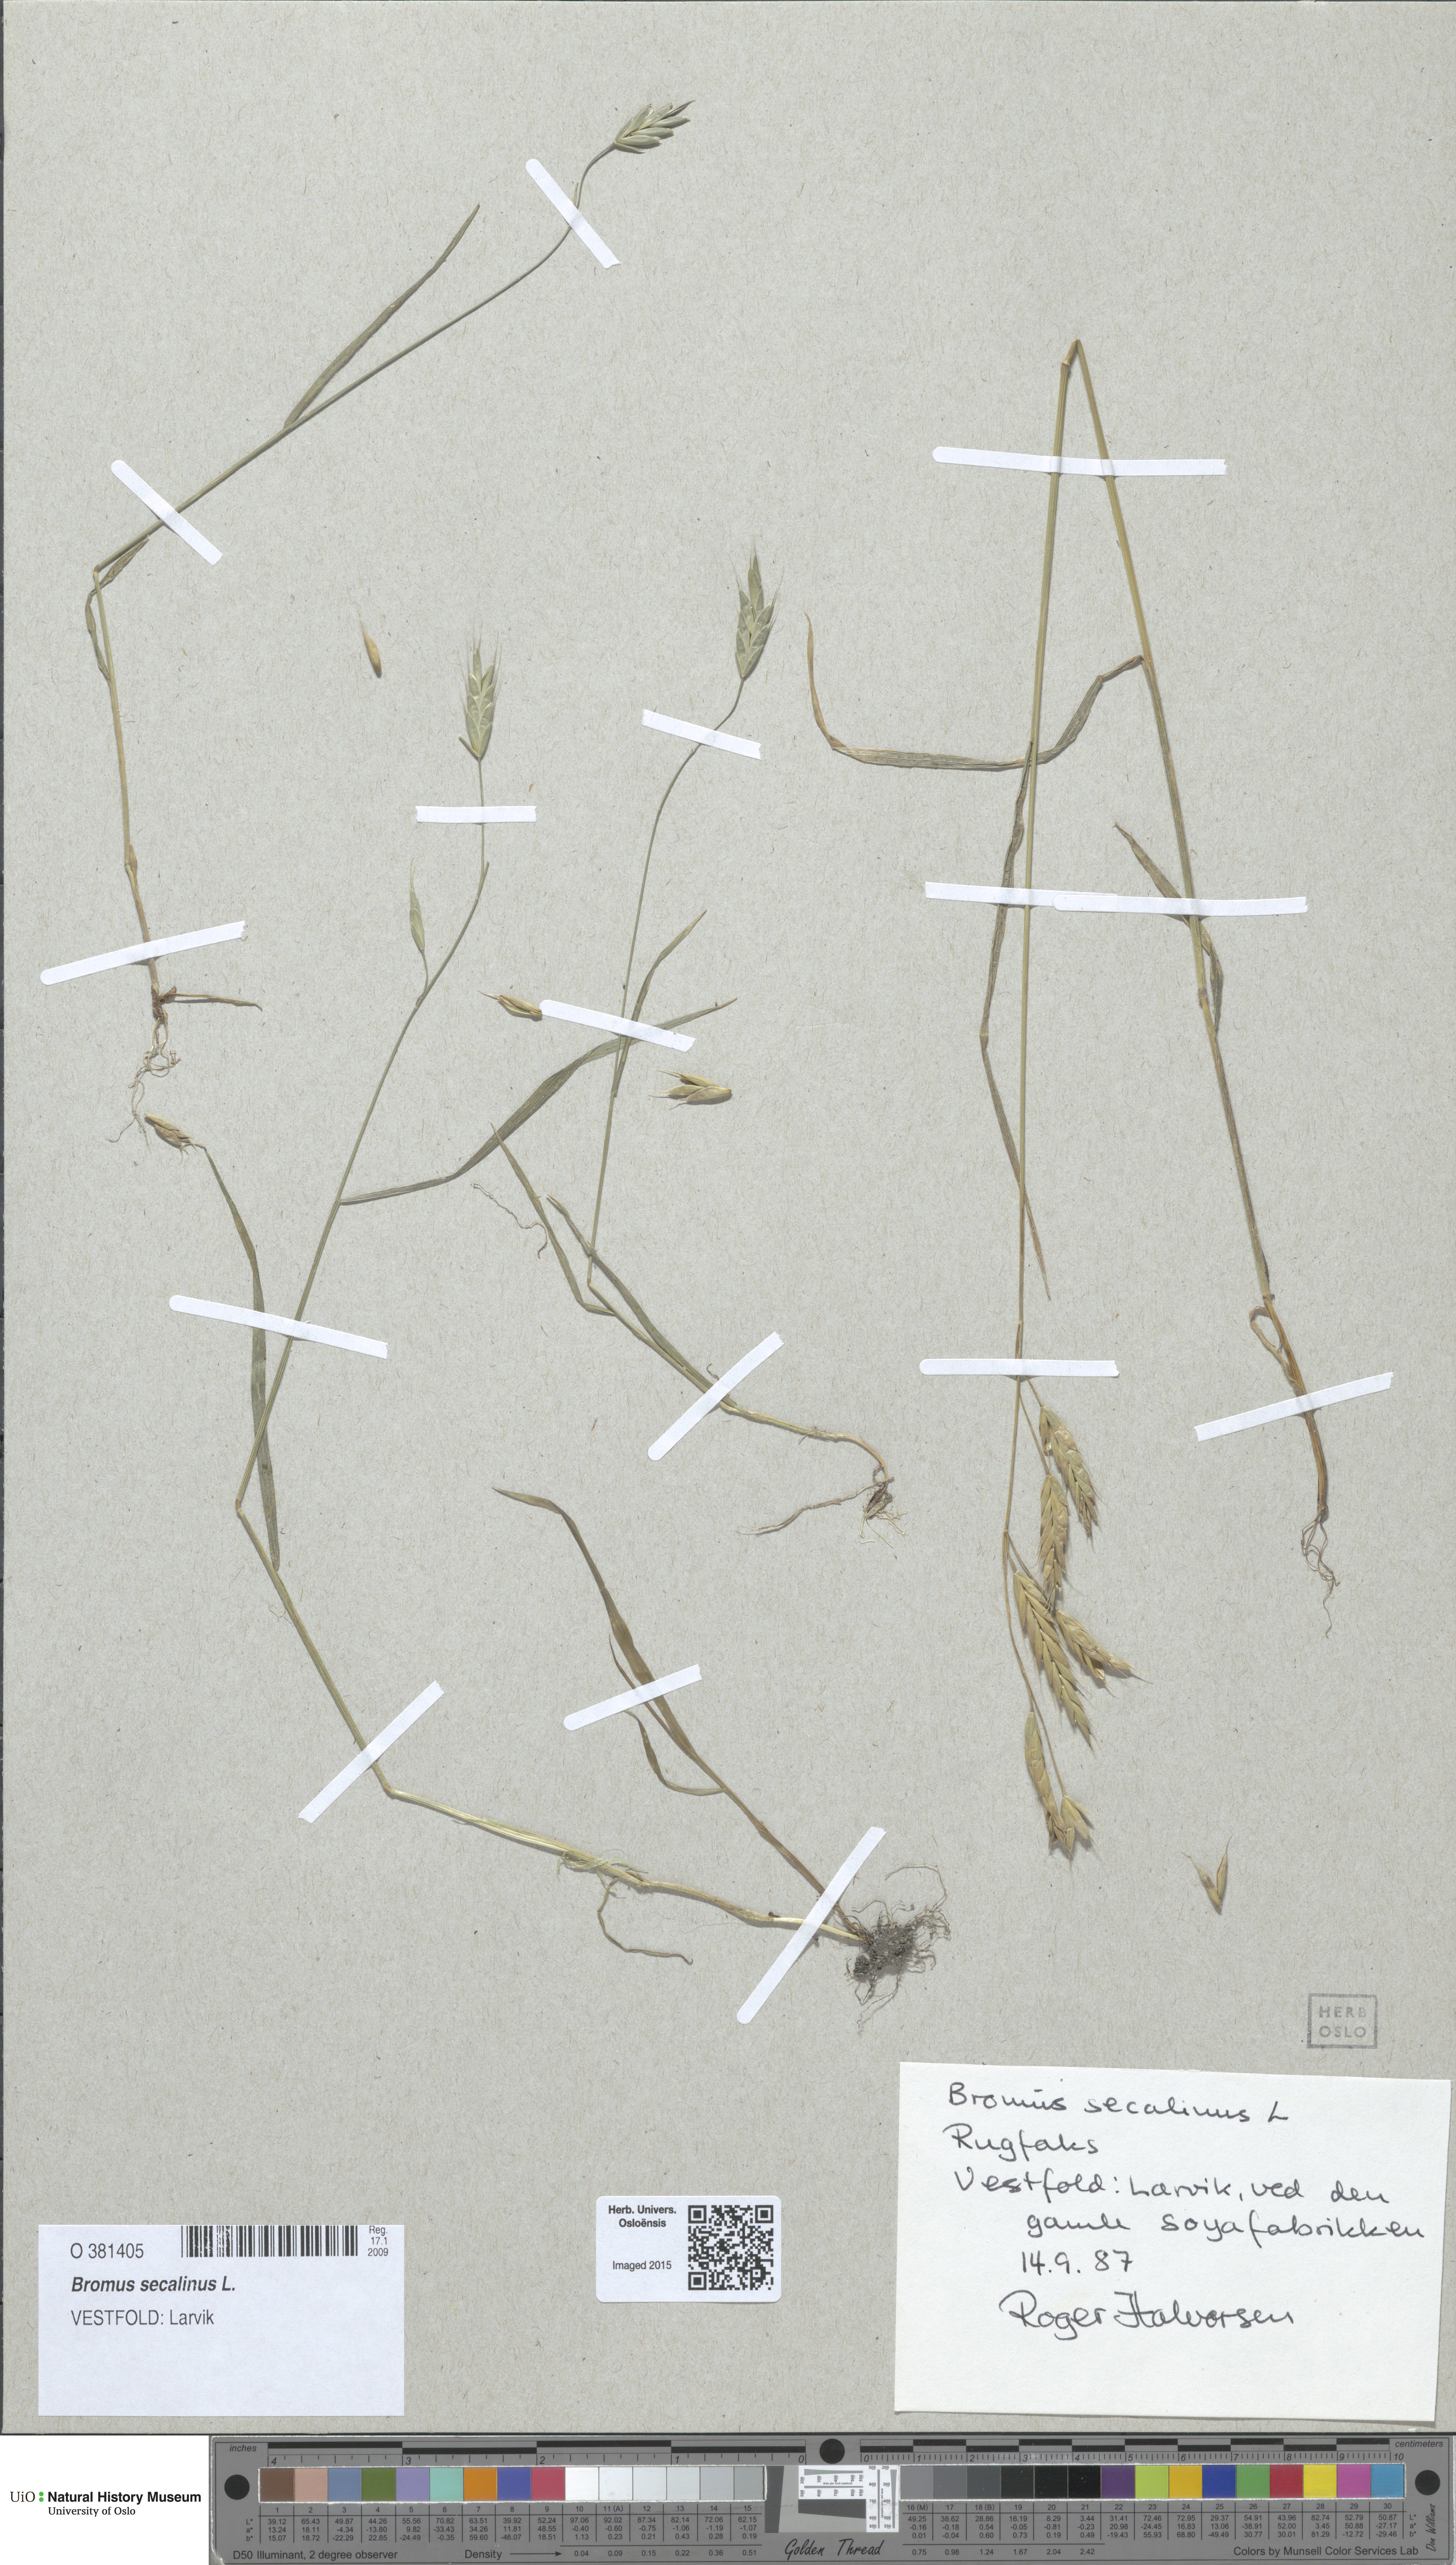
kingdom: Plantae
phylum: Tracheophyta
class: Liliopsida
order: Poales
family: Poaceae
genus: Bromus
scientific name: Bromus secalinus
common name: Rye brome
